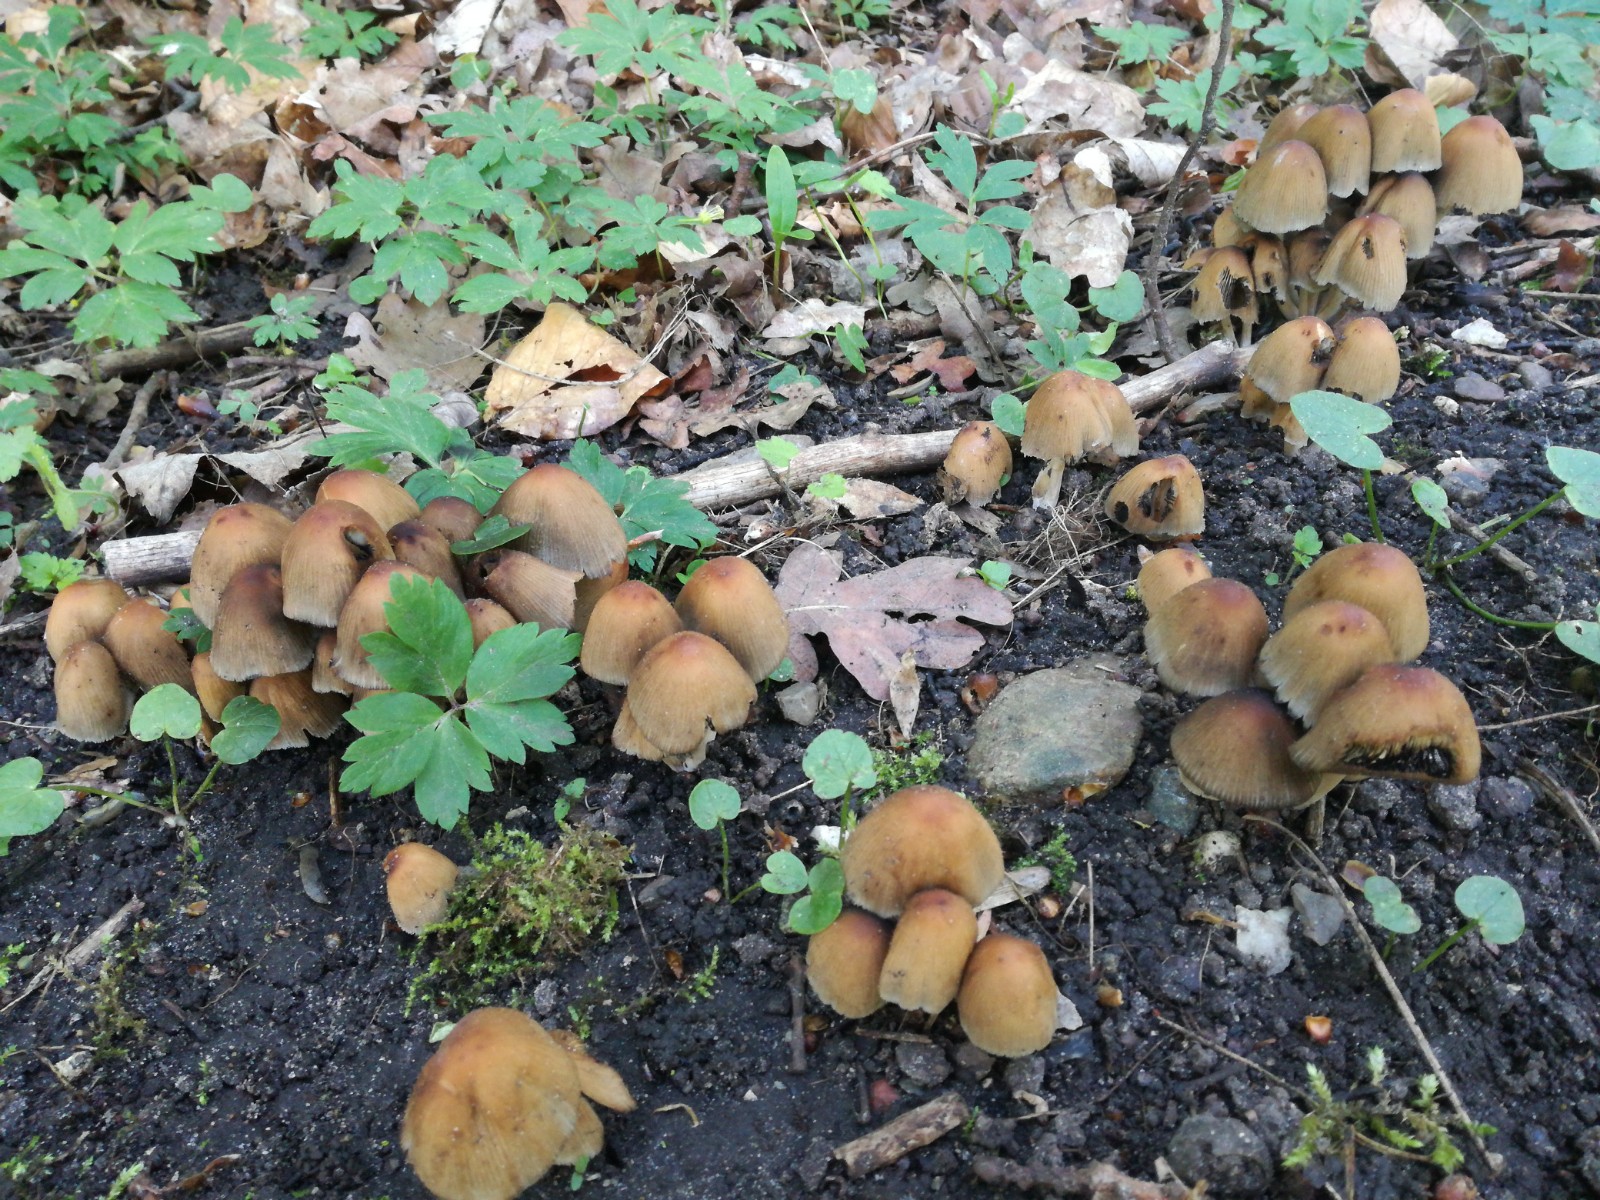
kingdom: Fungi
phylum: Basidiomycota
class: Agaricomycetes
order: Agaricales
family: Psathyrellaceae
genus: Coprinellus
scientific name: Coprinellus micaceus
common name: glimmer-blækhat
